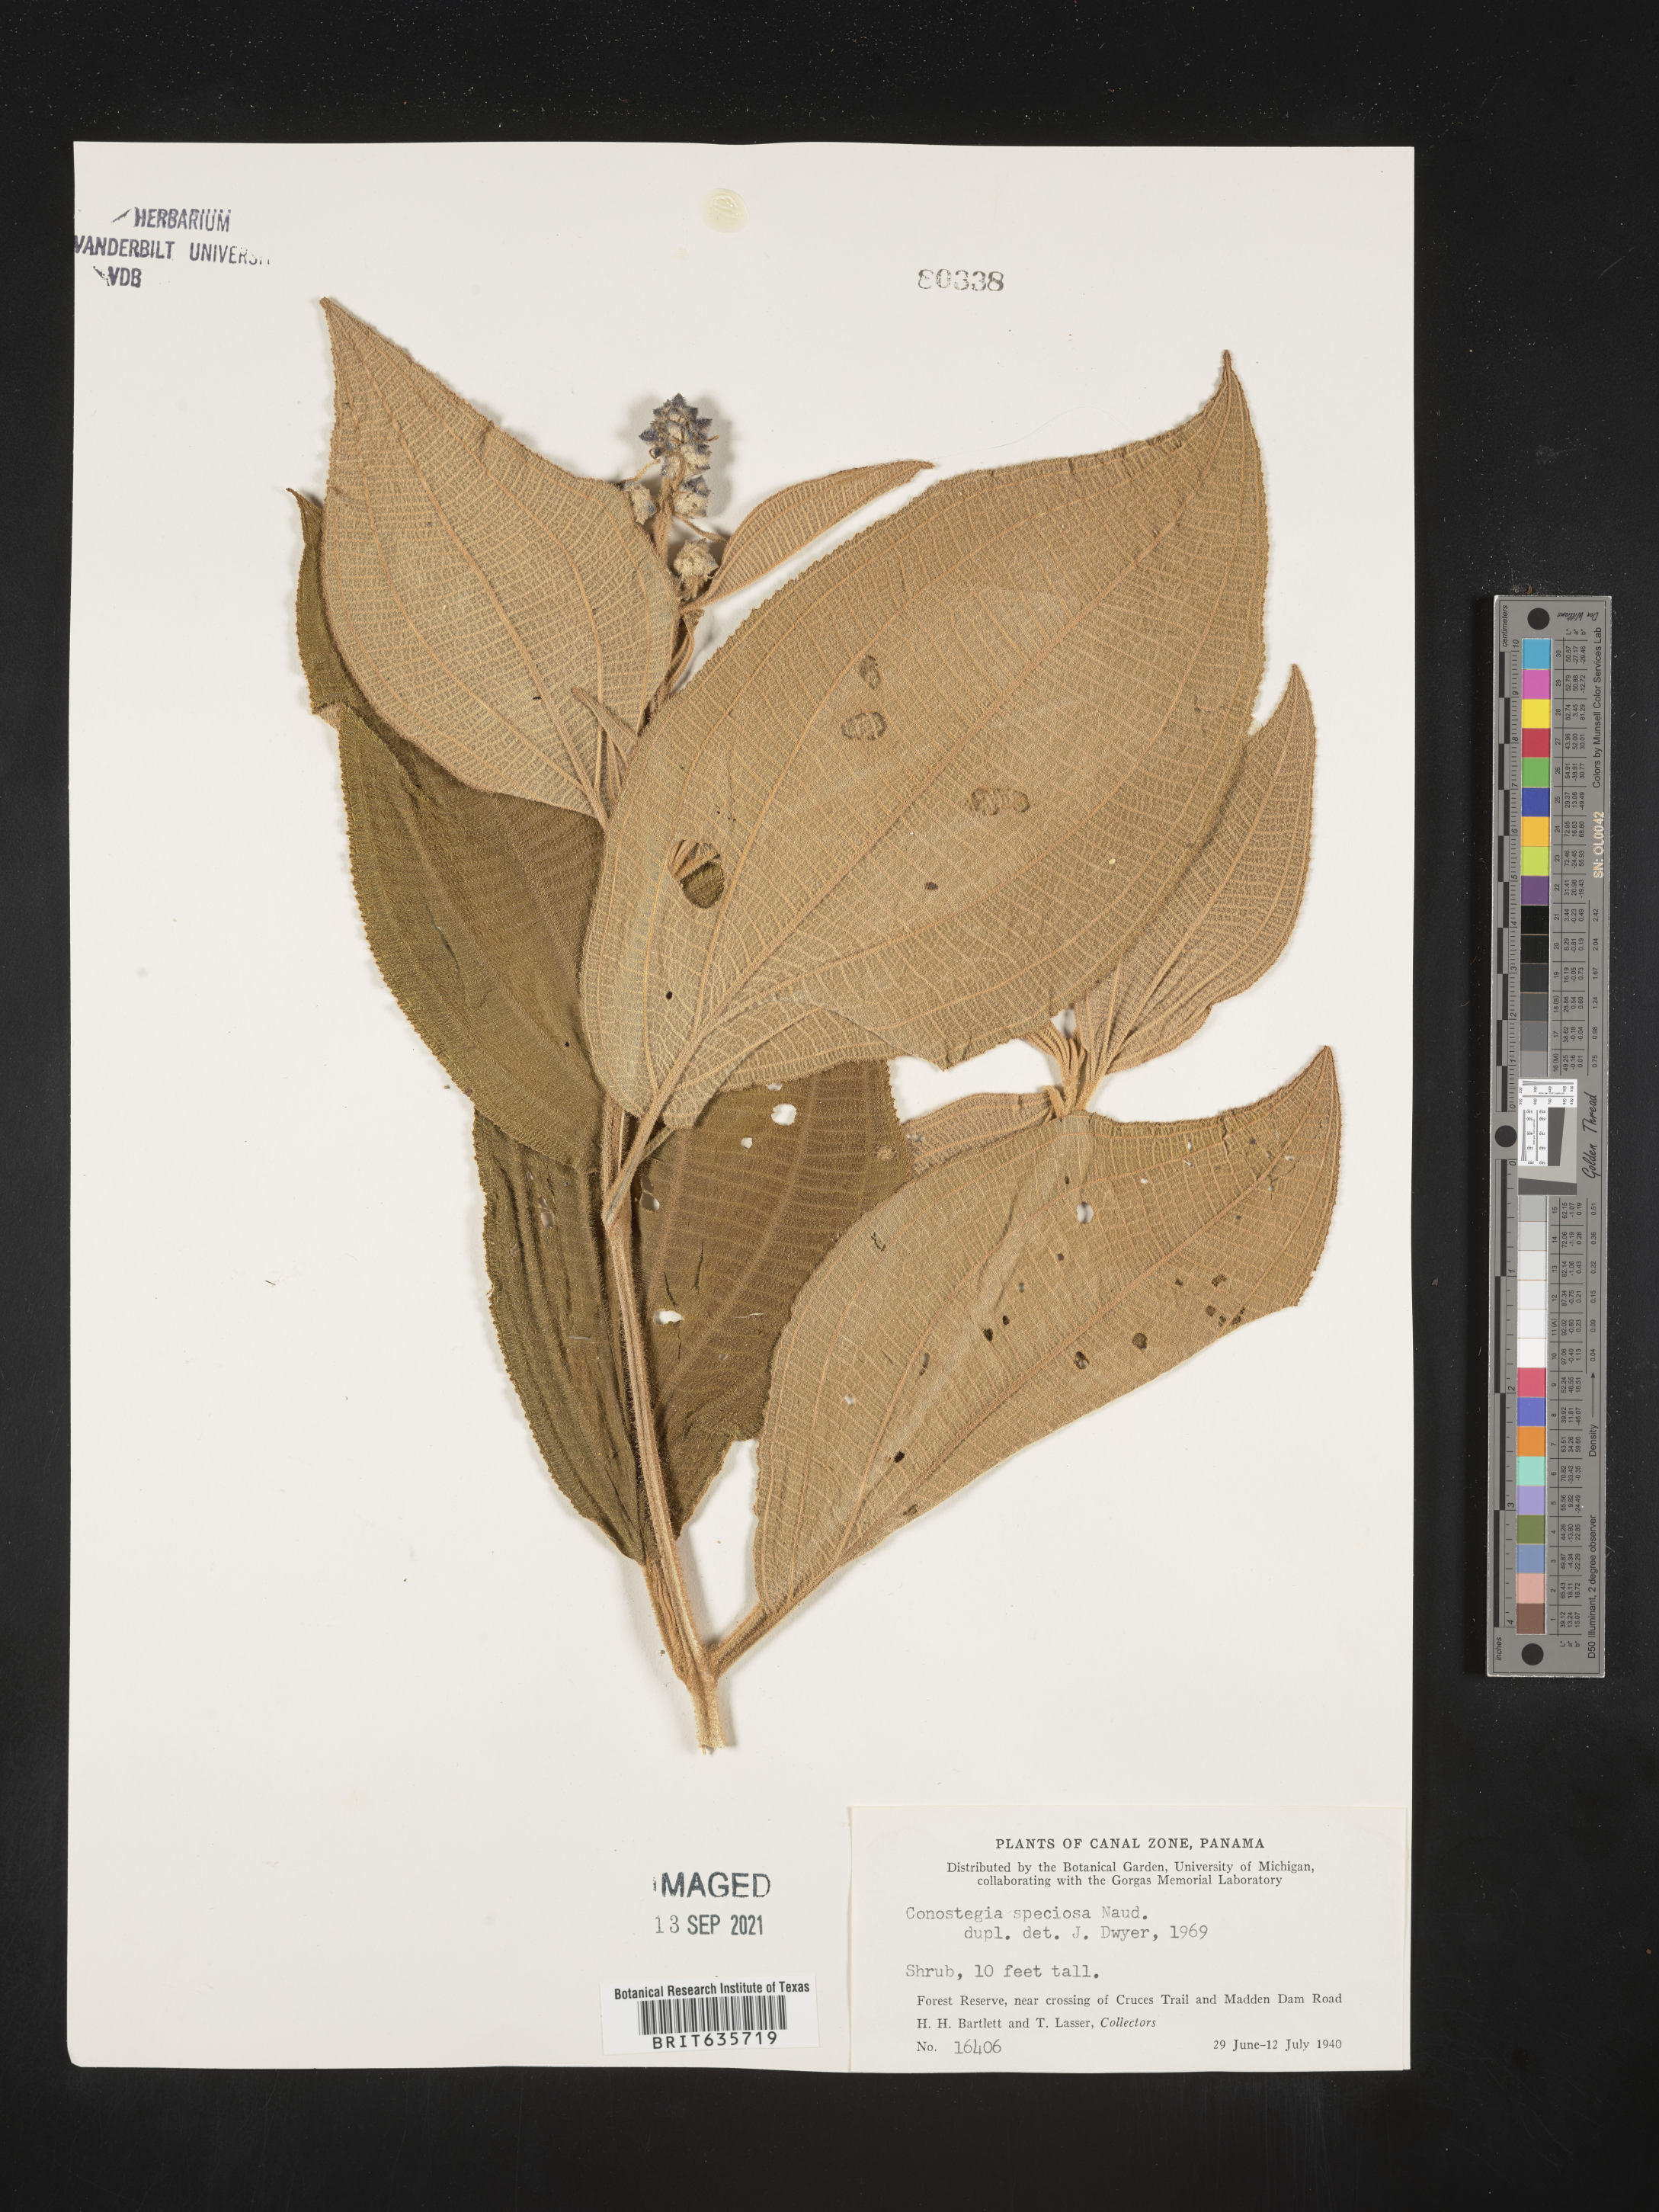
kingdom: Plantae
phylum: Tracheophyta
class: Magnoliopsida
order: Myrtales
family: Melastomataceae
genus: Miconia
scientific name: Miconia
